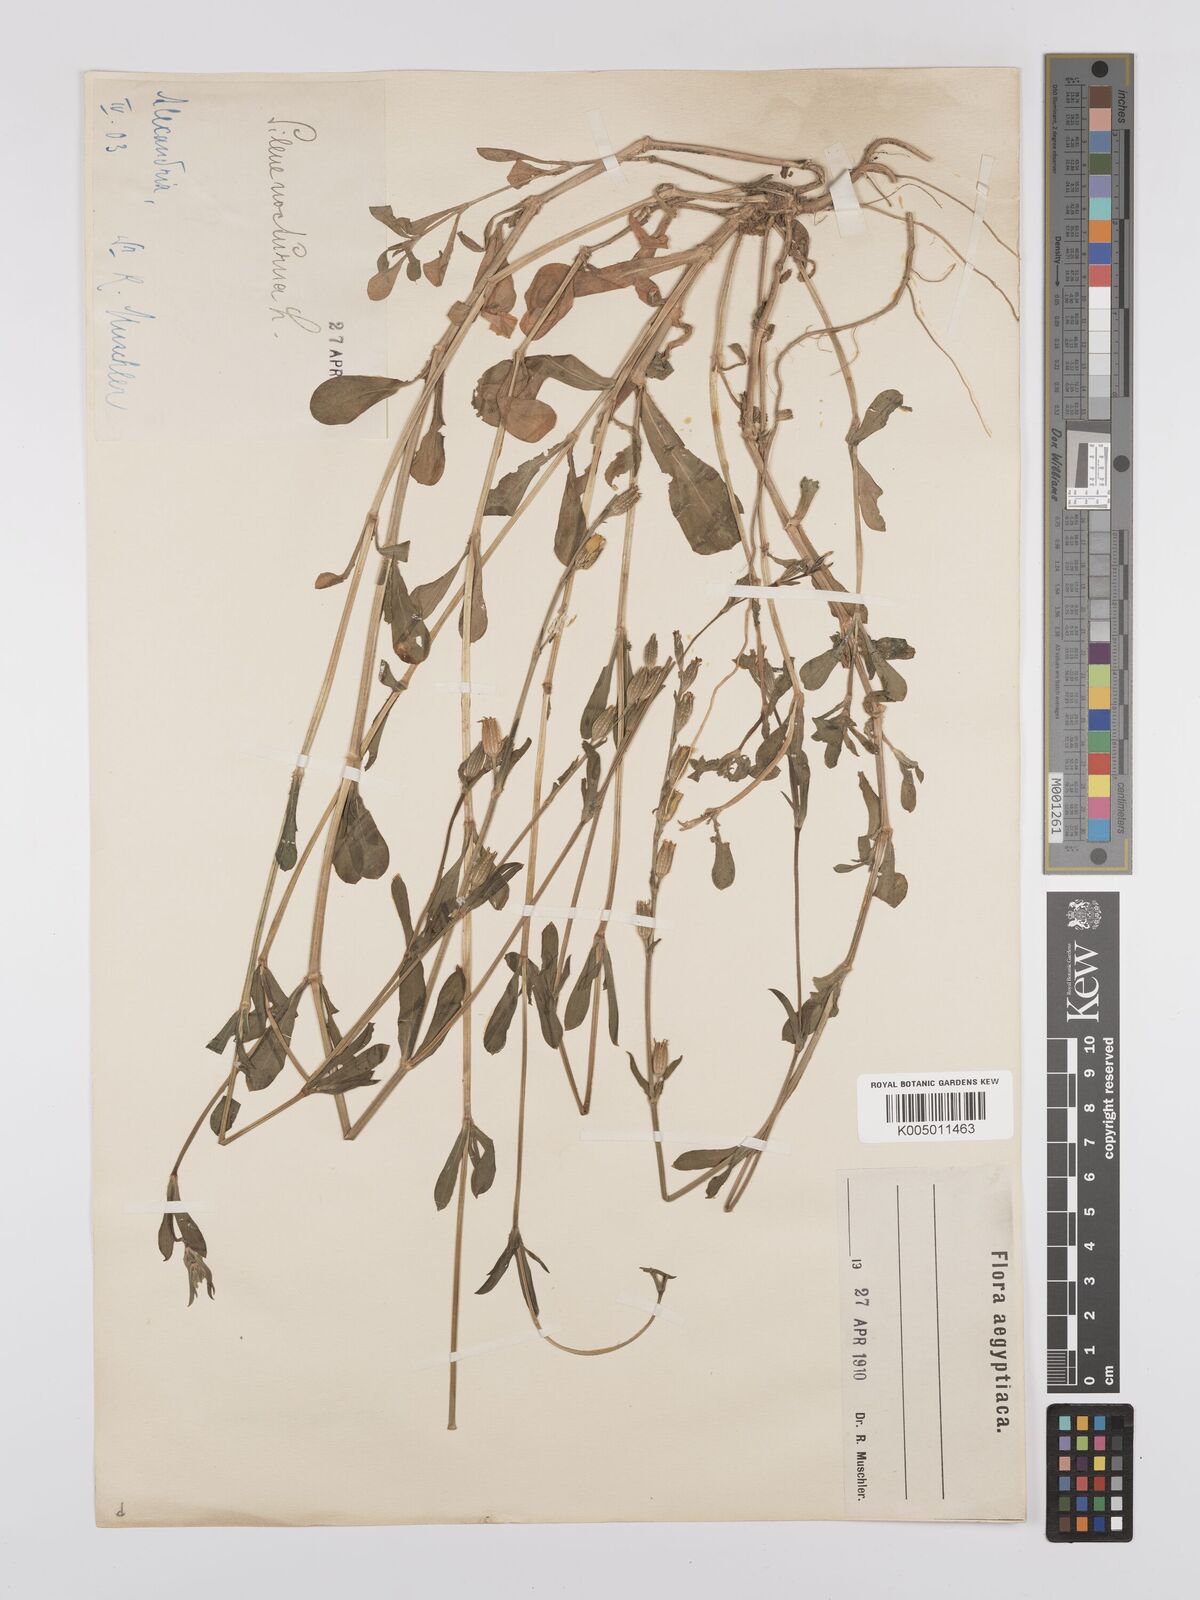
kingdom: Plantae
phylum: Tracheophyta
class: Magnoliopsida
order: Caryophyllales
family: Caryophyllaceae
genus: Silene
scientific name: Silene nocturna
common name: Mediterranean catchfly
